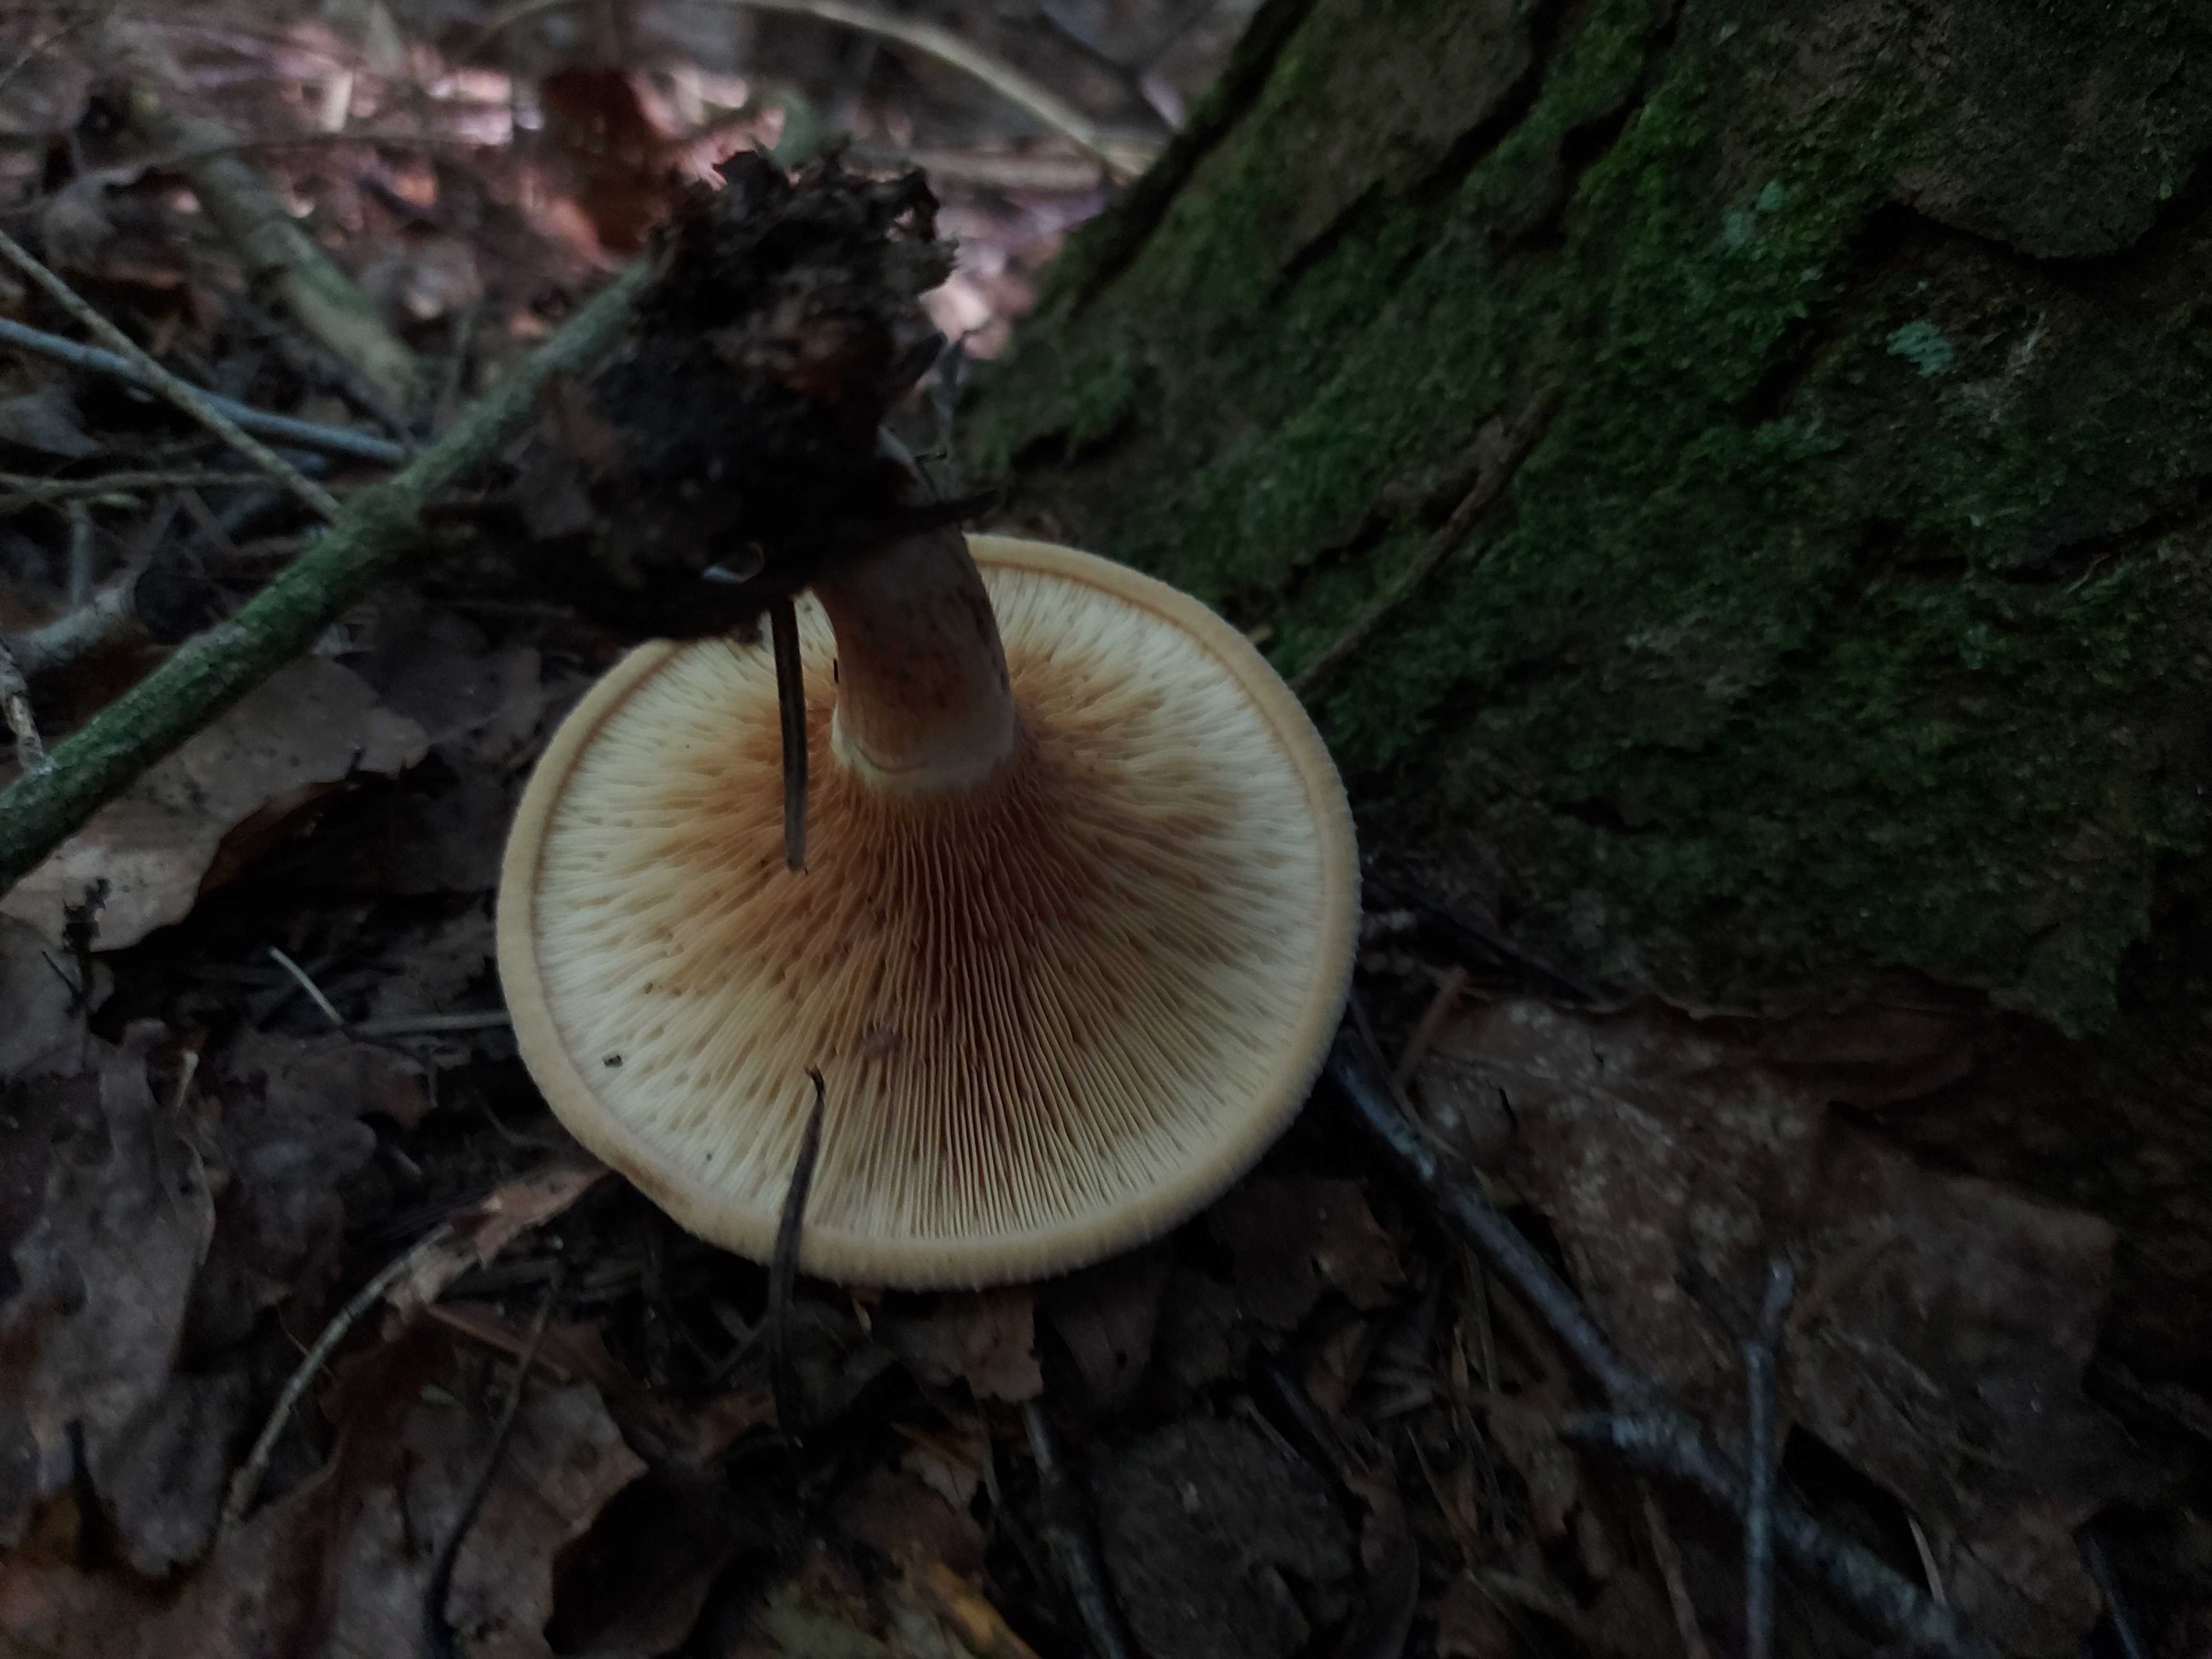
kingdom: Fungi
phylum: Basidiomycota
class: Agaricomycetes
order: Boletales
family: Paxillaceae
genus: Paxillus
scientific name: Paxillus involutus
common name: almindelig netbladhat
